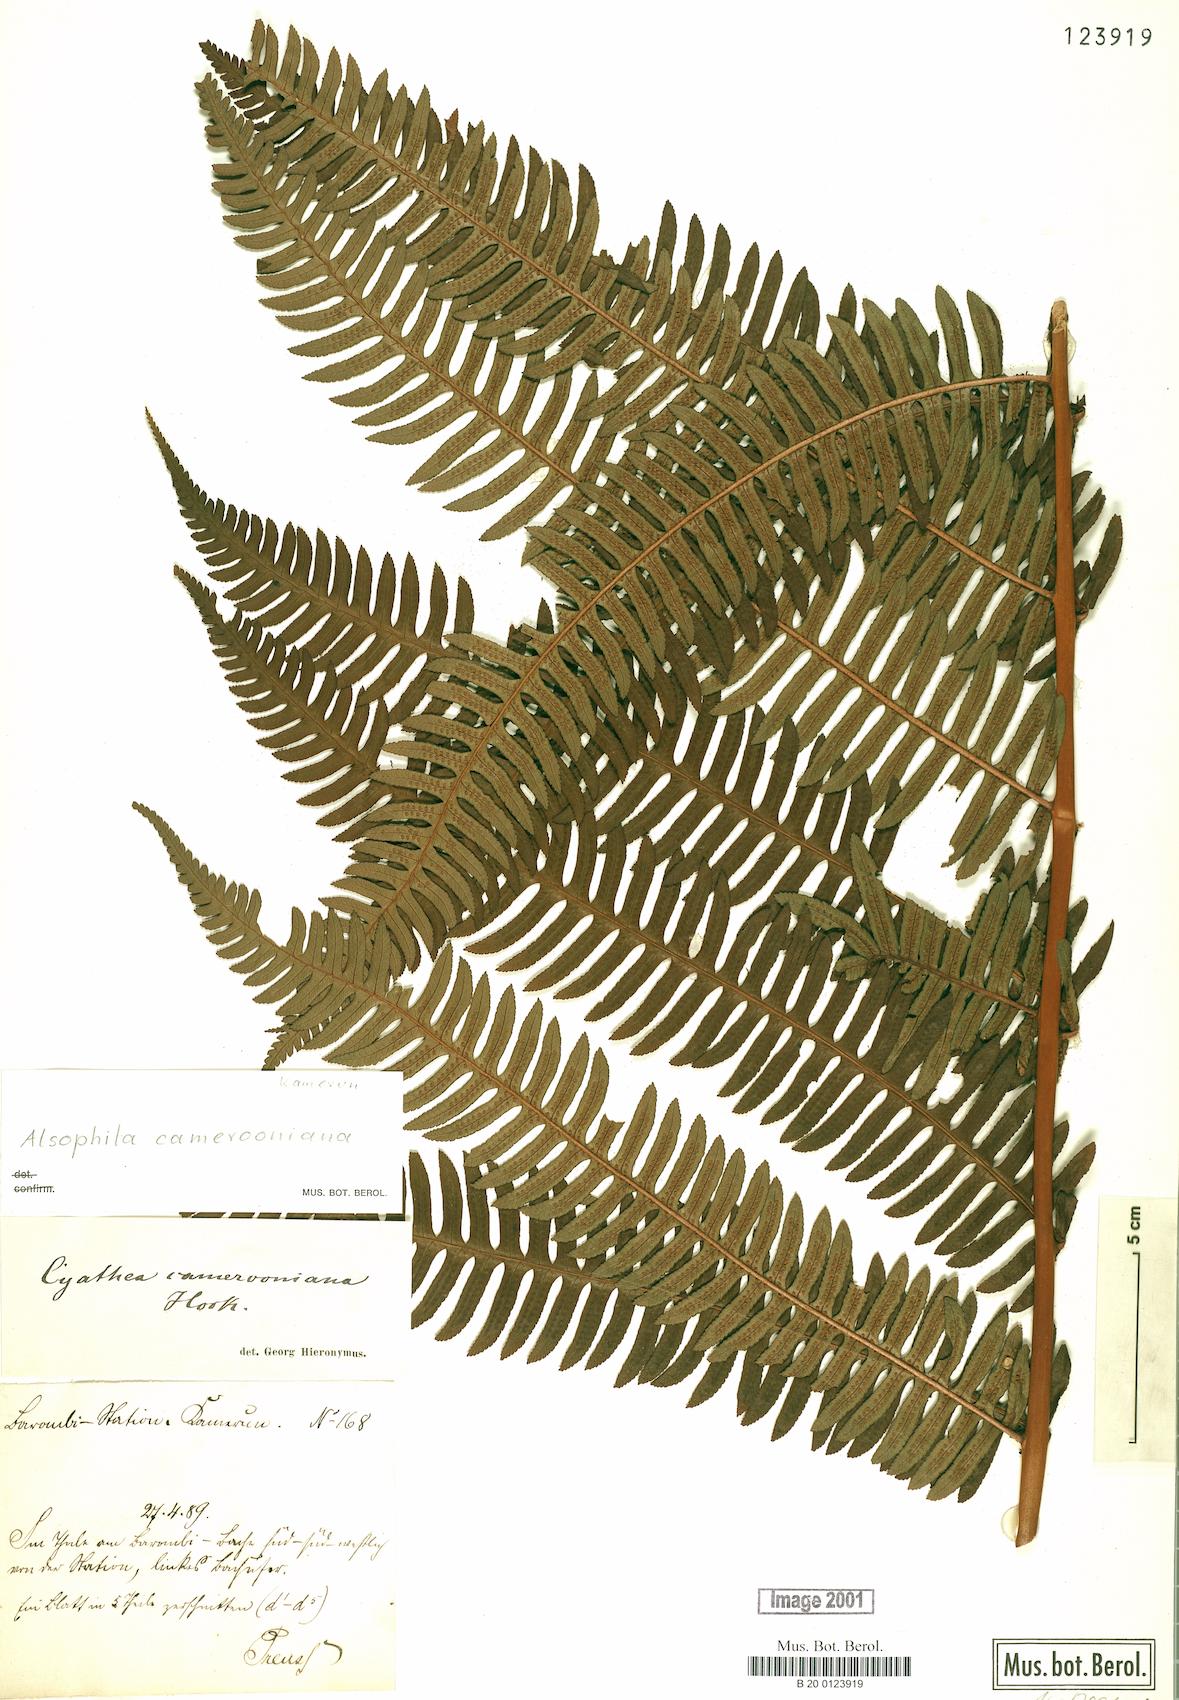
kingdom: Plantae
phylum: Tracheophyta
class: Polypodiopsida
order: Cyatheales
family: Cyatheaceae
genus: Alsophila
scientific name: Alsophila camerooniana
